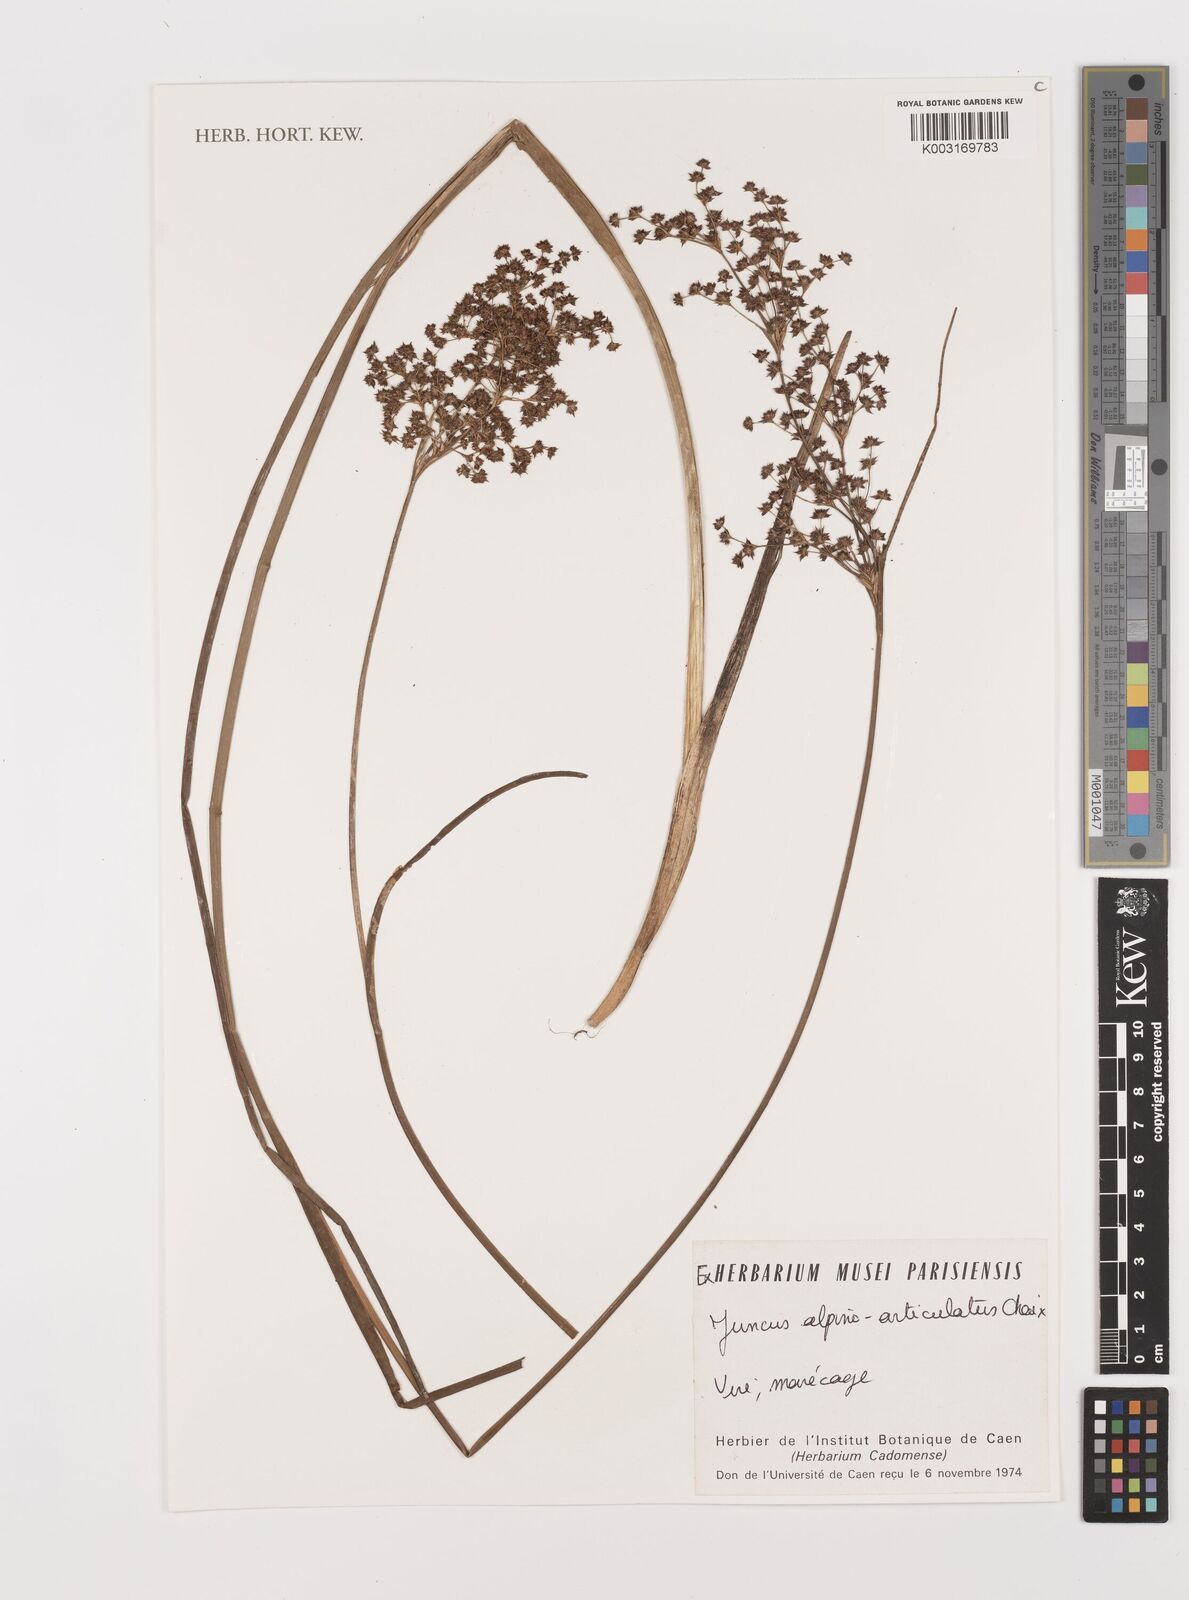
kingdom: Plantae
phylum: Tracheophyta
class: Liliopsida
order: Poales
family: Juncaceae
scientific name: Juncaceae
